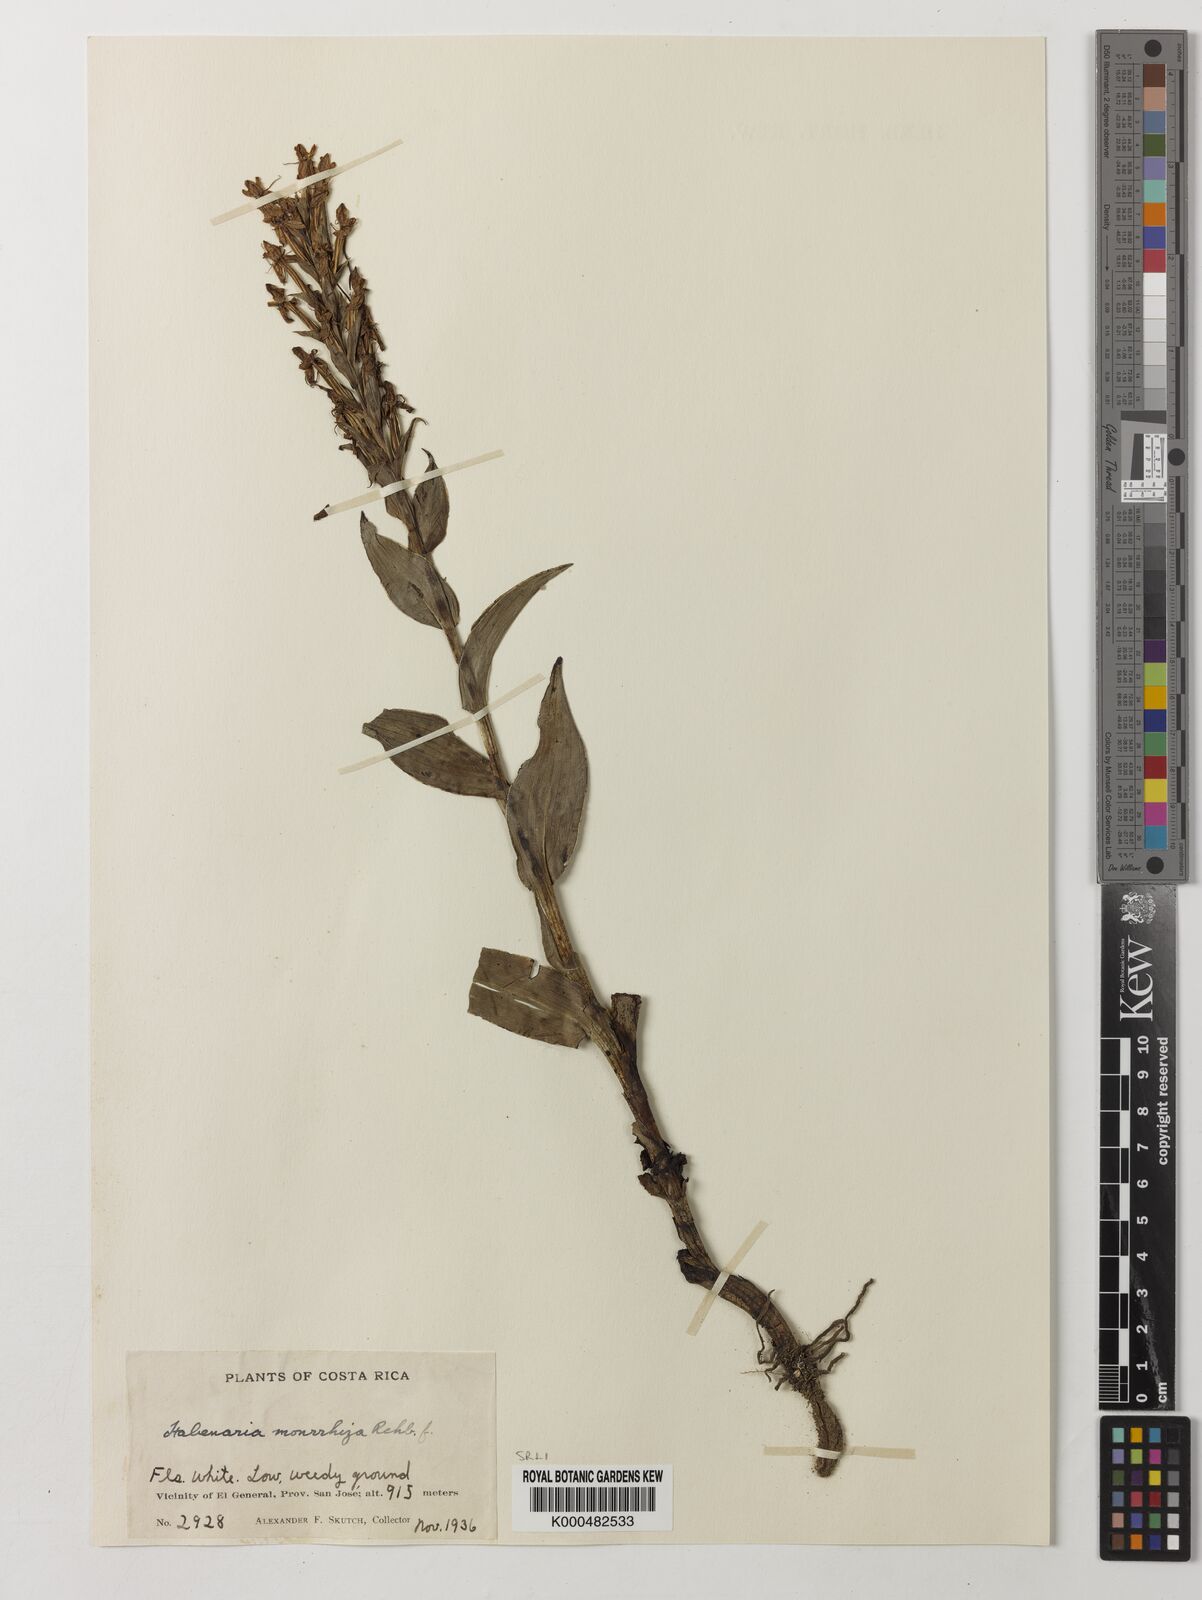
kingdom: Plantae
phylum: Tracheophyta
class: Liliopsida
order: Asparagales
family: Orchidaceae
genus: Habenaria
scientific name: Habenaria monorrhiza
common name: Tropical bog orchid
